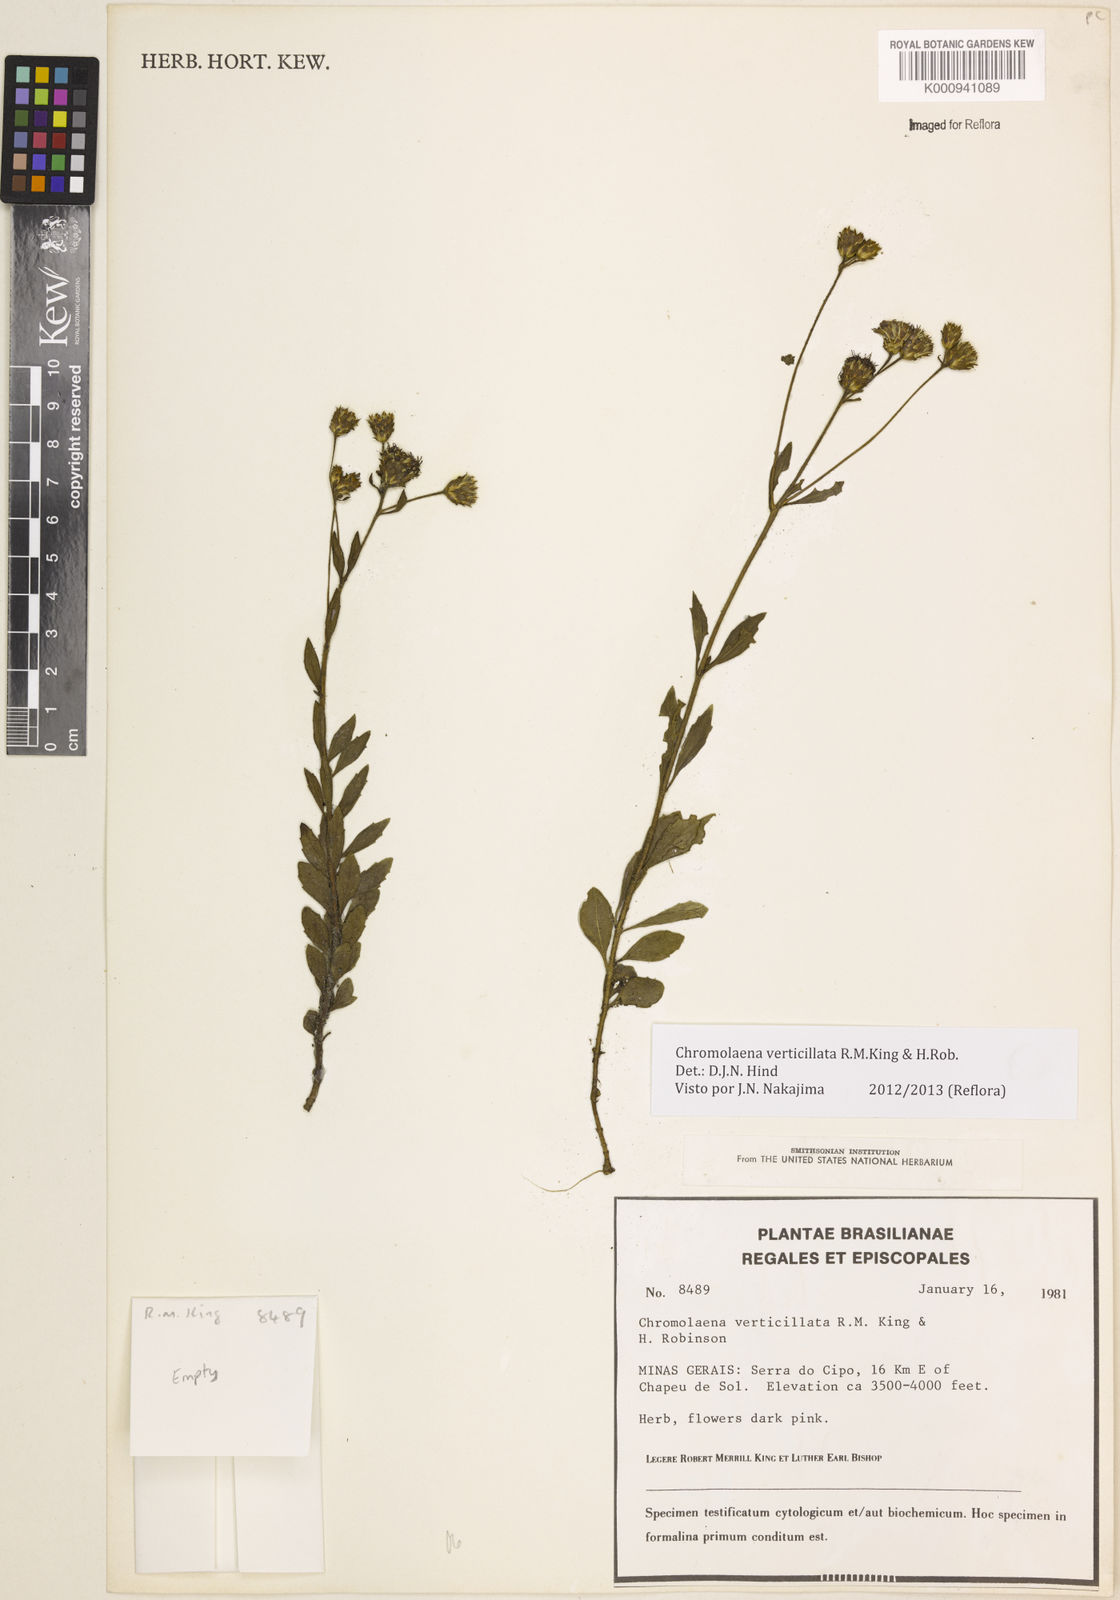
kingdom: Plantae
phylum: Tracheophyta
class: Magnoliopsida
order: Asterales
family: Asteraceae
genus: Chromolaena
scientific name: Chromolaena verticillata
